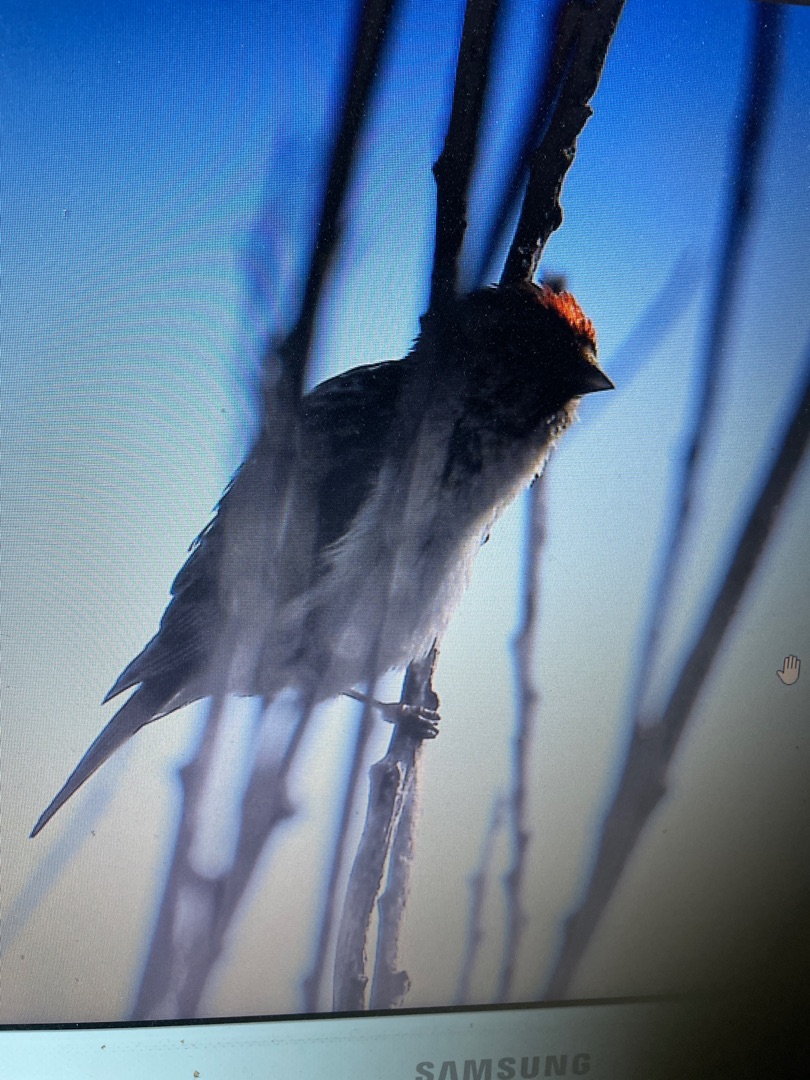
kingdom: Animalia
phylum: Chordata
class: Aves
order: Passeriformes
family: Fringillidae
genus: Acanthis
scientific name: Acanthis flammea
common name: Lille gråsisken
